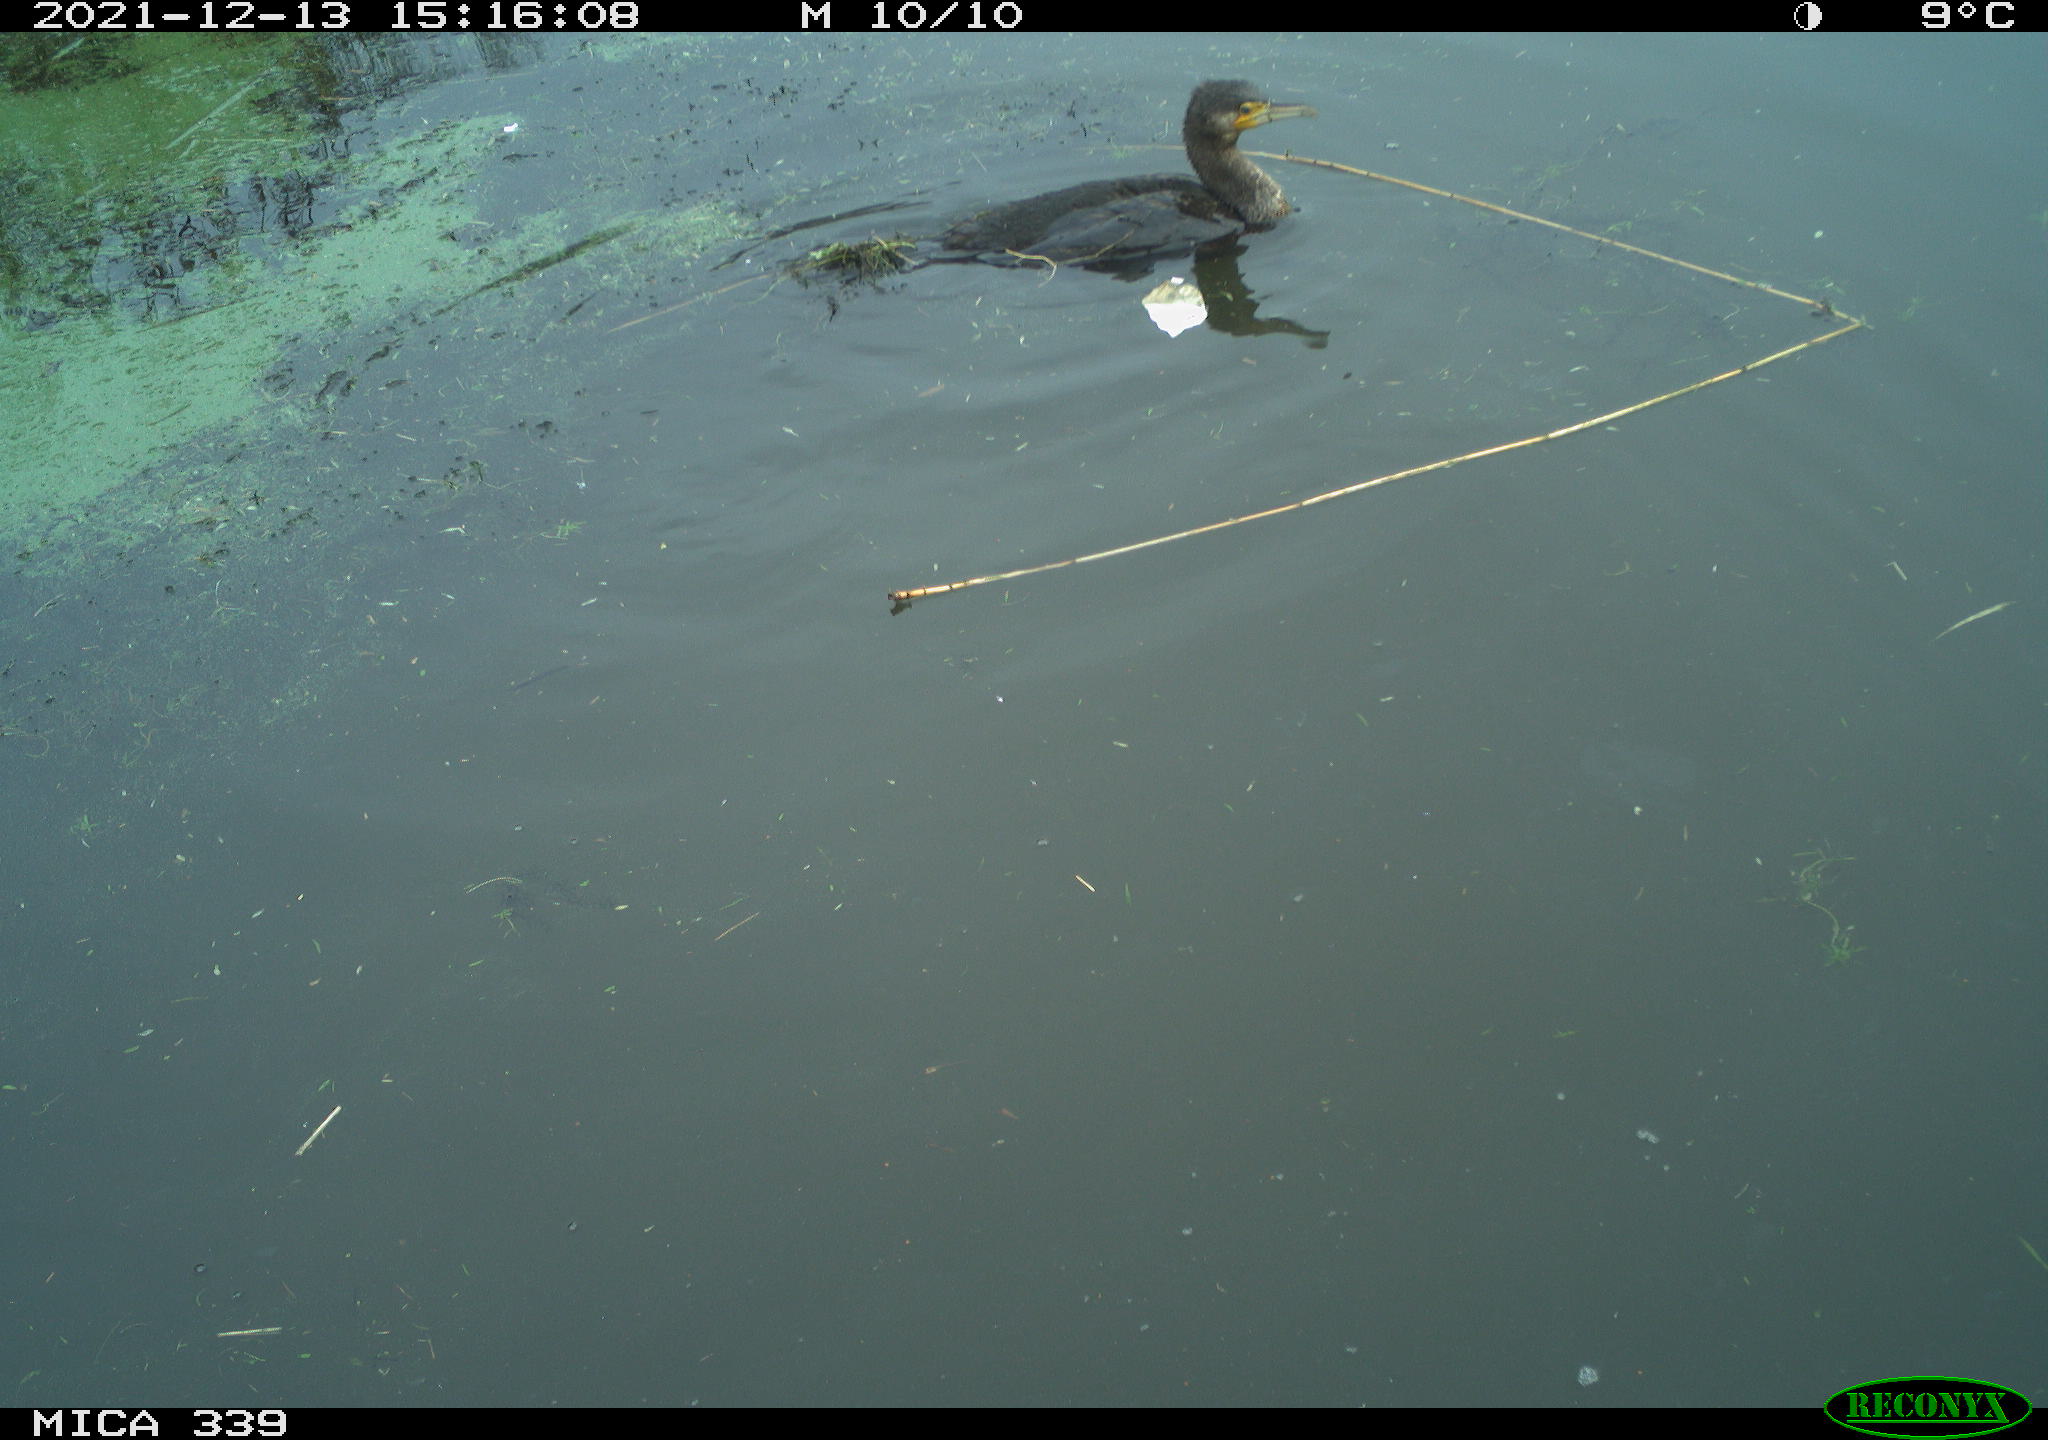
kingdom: Animalia
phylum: Chordata
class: Aves
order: Suliformes
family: Phalacrocoracidae
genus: Phalacrocorax
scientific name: Phalacrocorax carbo
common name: Great cormorant
